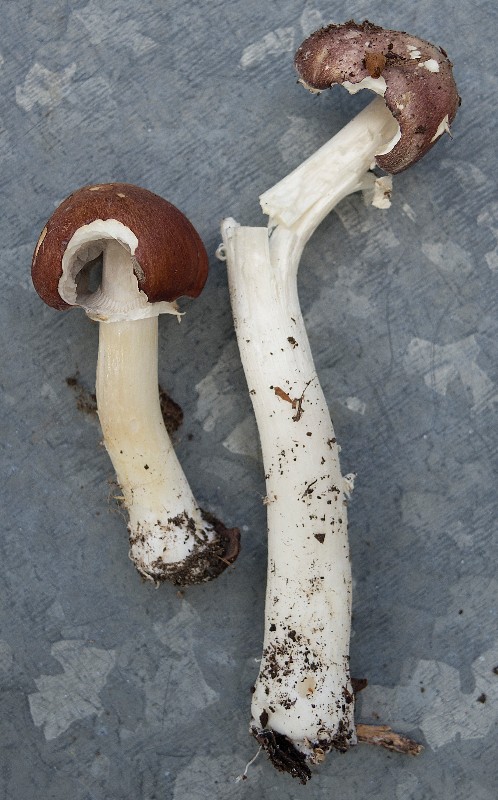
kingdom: Fungi
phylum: Basidiomycota
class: Agaricomycetes
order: Agaricales
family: Strophariaceae
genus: Stropharia
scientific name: Stropharia rugosoannulata
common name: rødbrun bredblad
